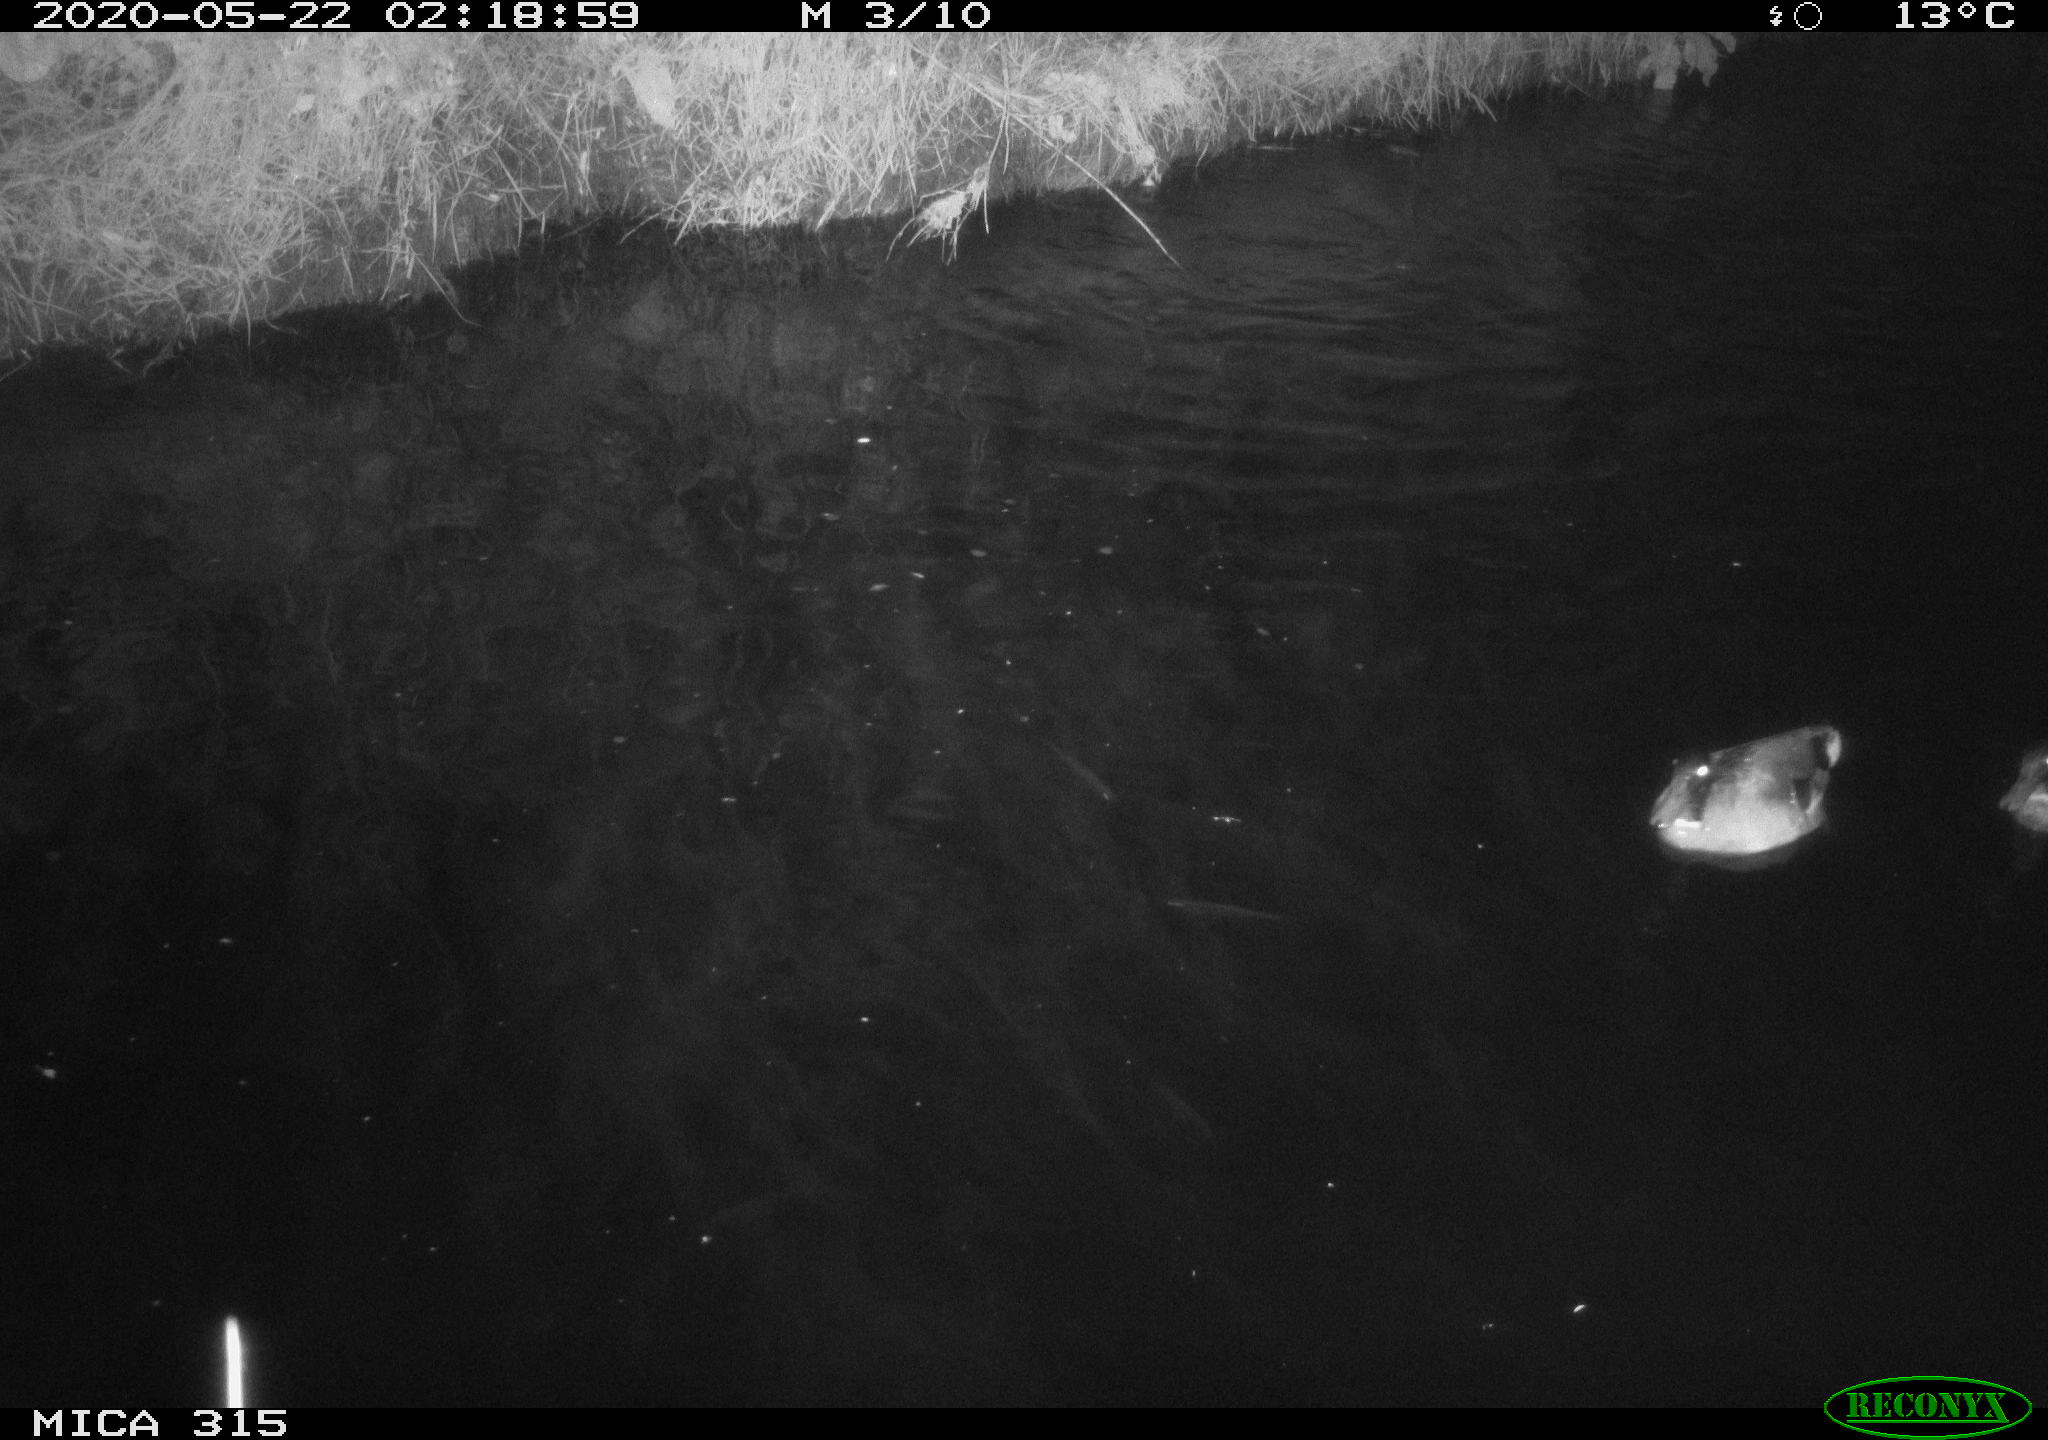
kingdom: Animalia
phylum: Chordata
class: Aves
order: Anseriformes
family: Anatidae
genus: Anas
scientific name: Anas platyrhynchos
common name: Mallard
